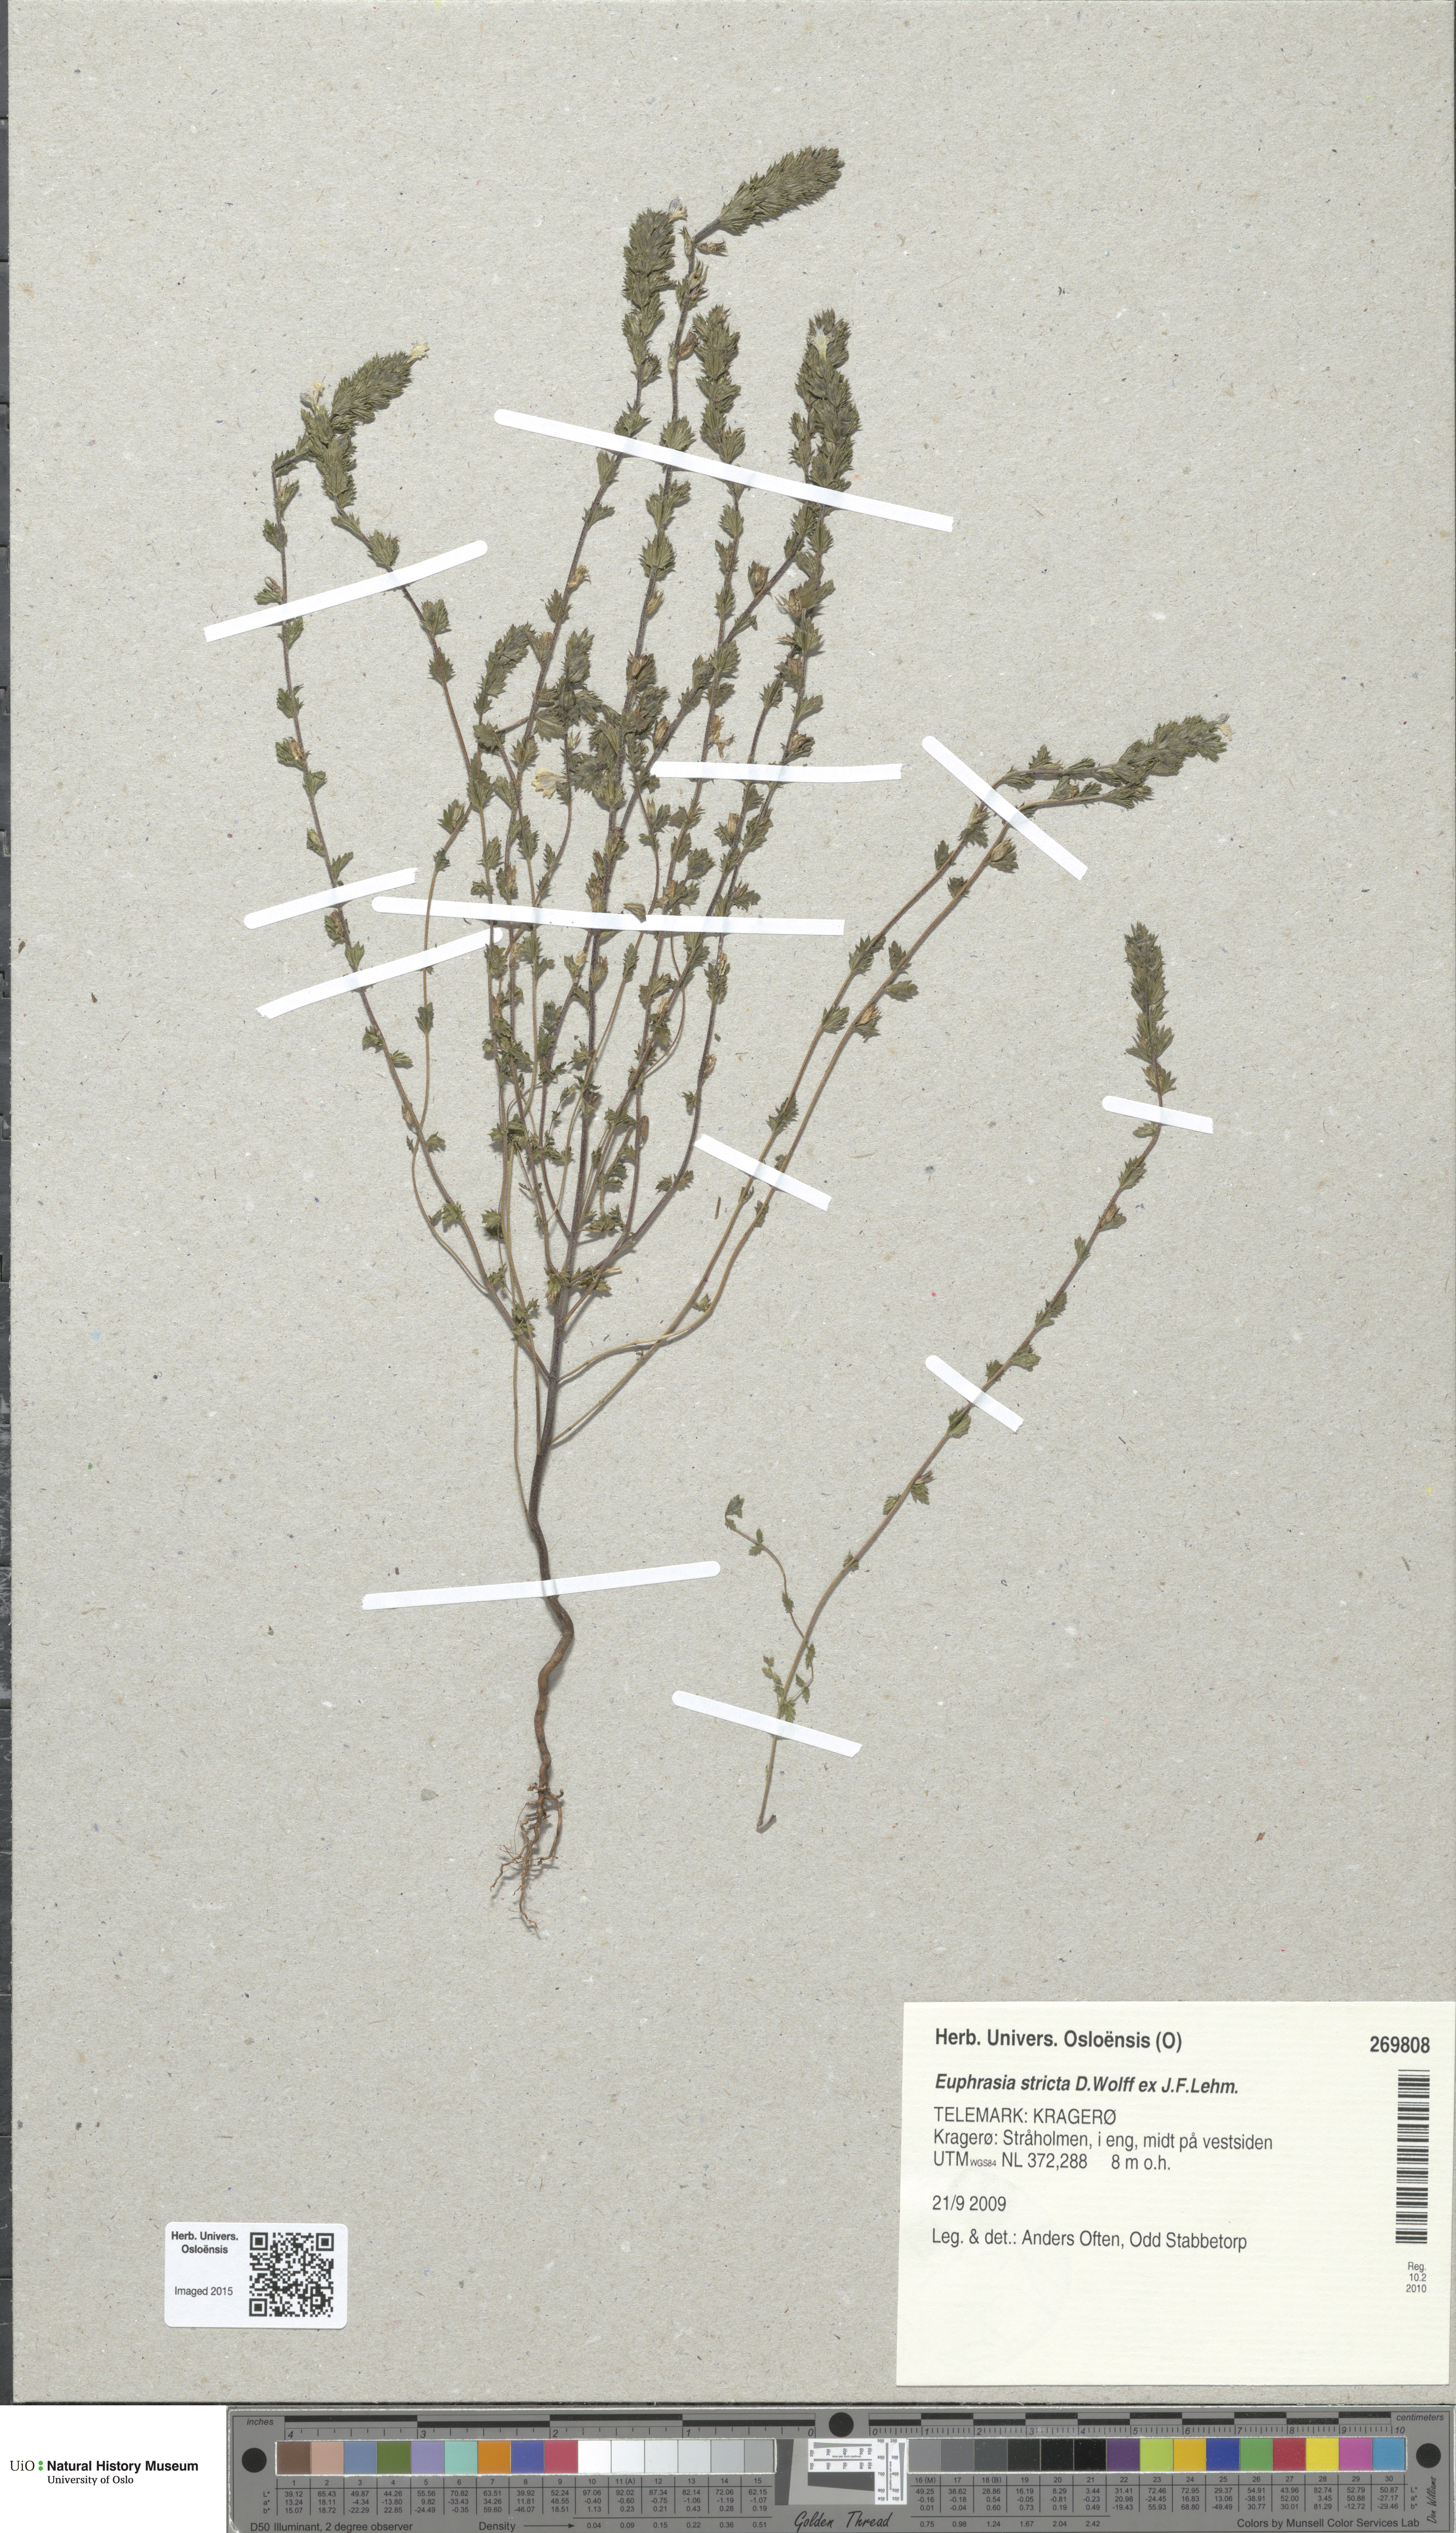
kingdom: Plantae
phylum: Tracheophyta
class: Magnoliopsida
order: Lamiales
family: Orobanchaceae
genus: Euphrasia
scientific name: Euphrasia stricta
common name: Drug eyebright
